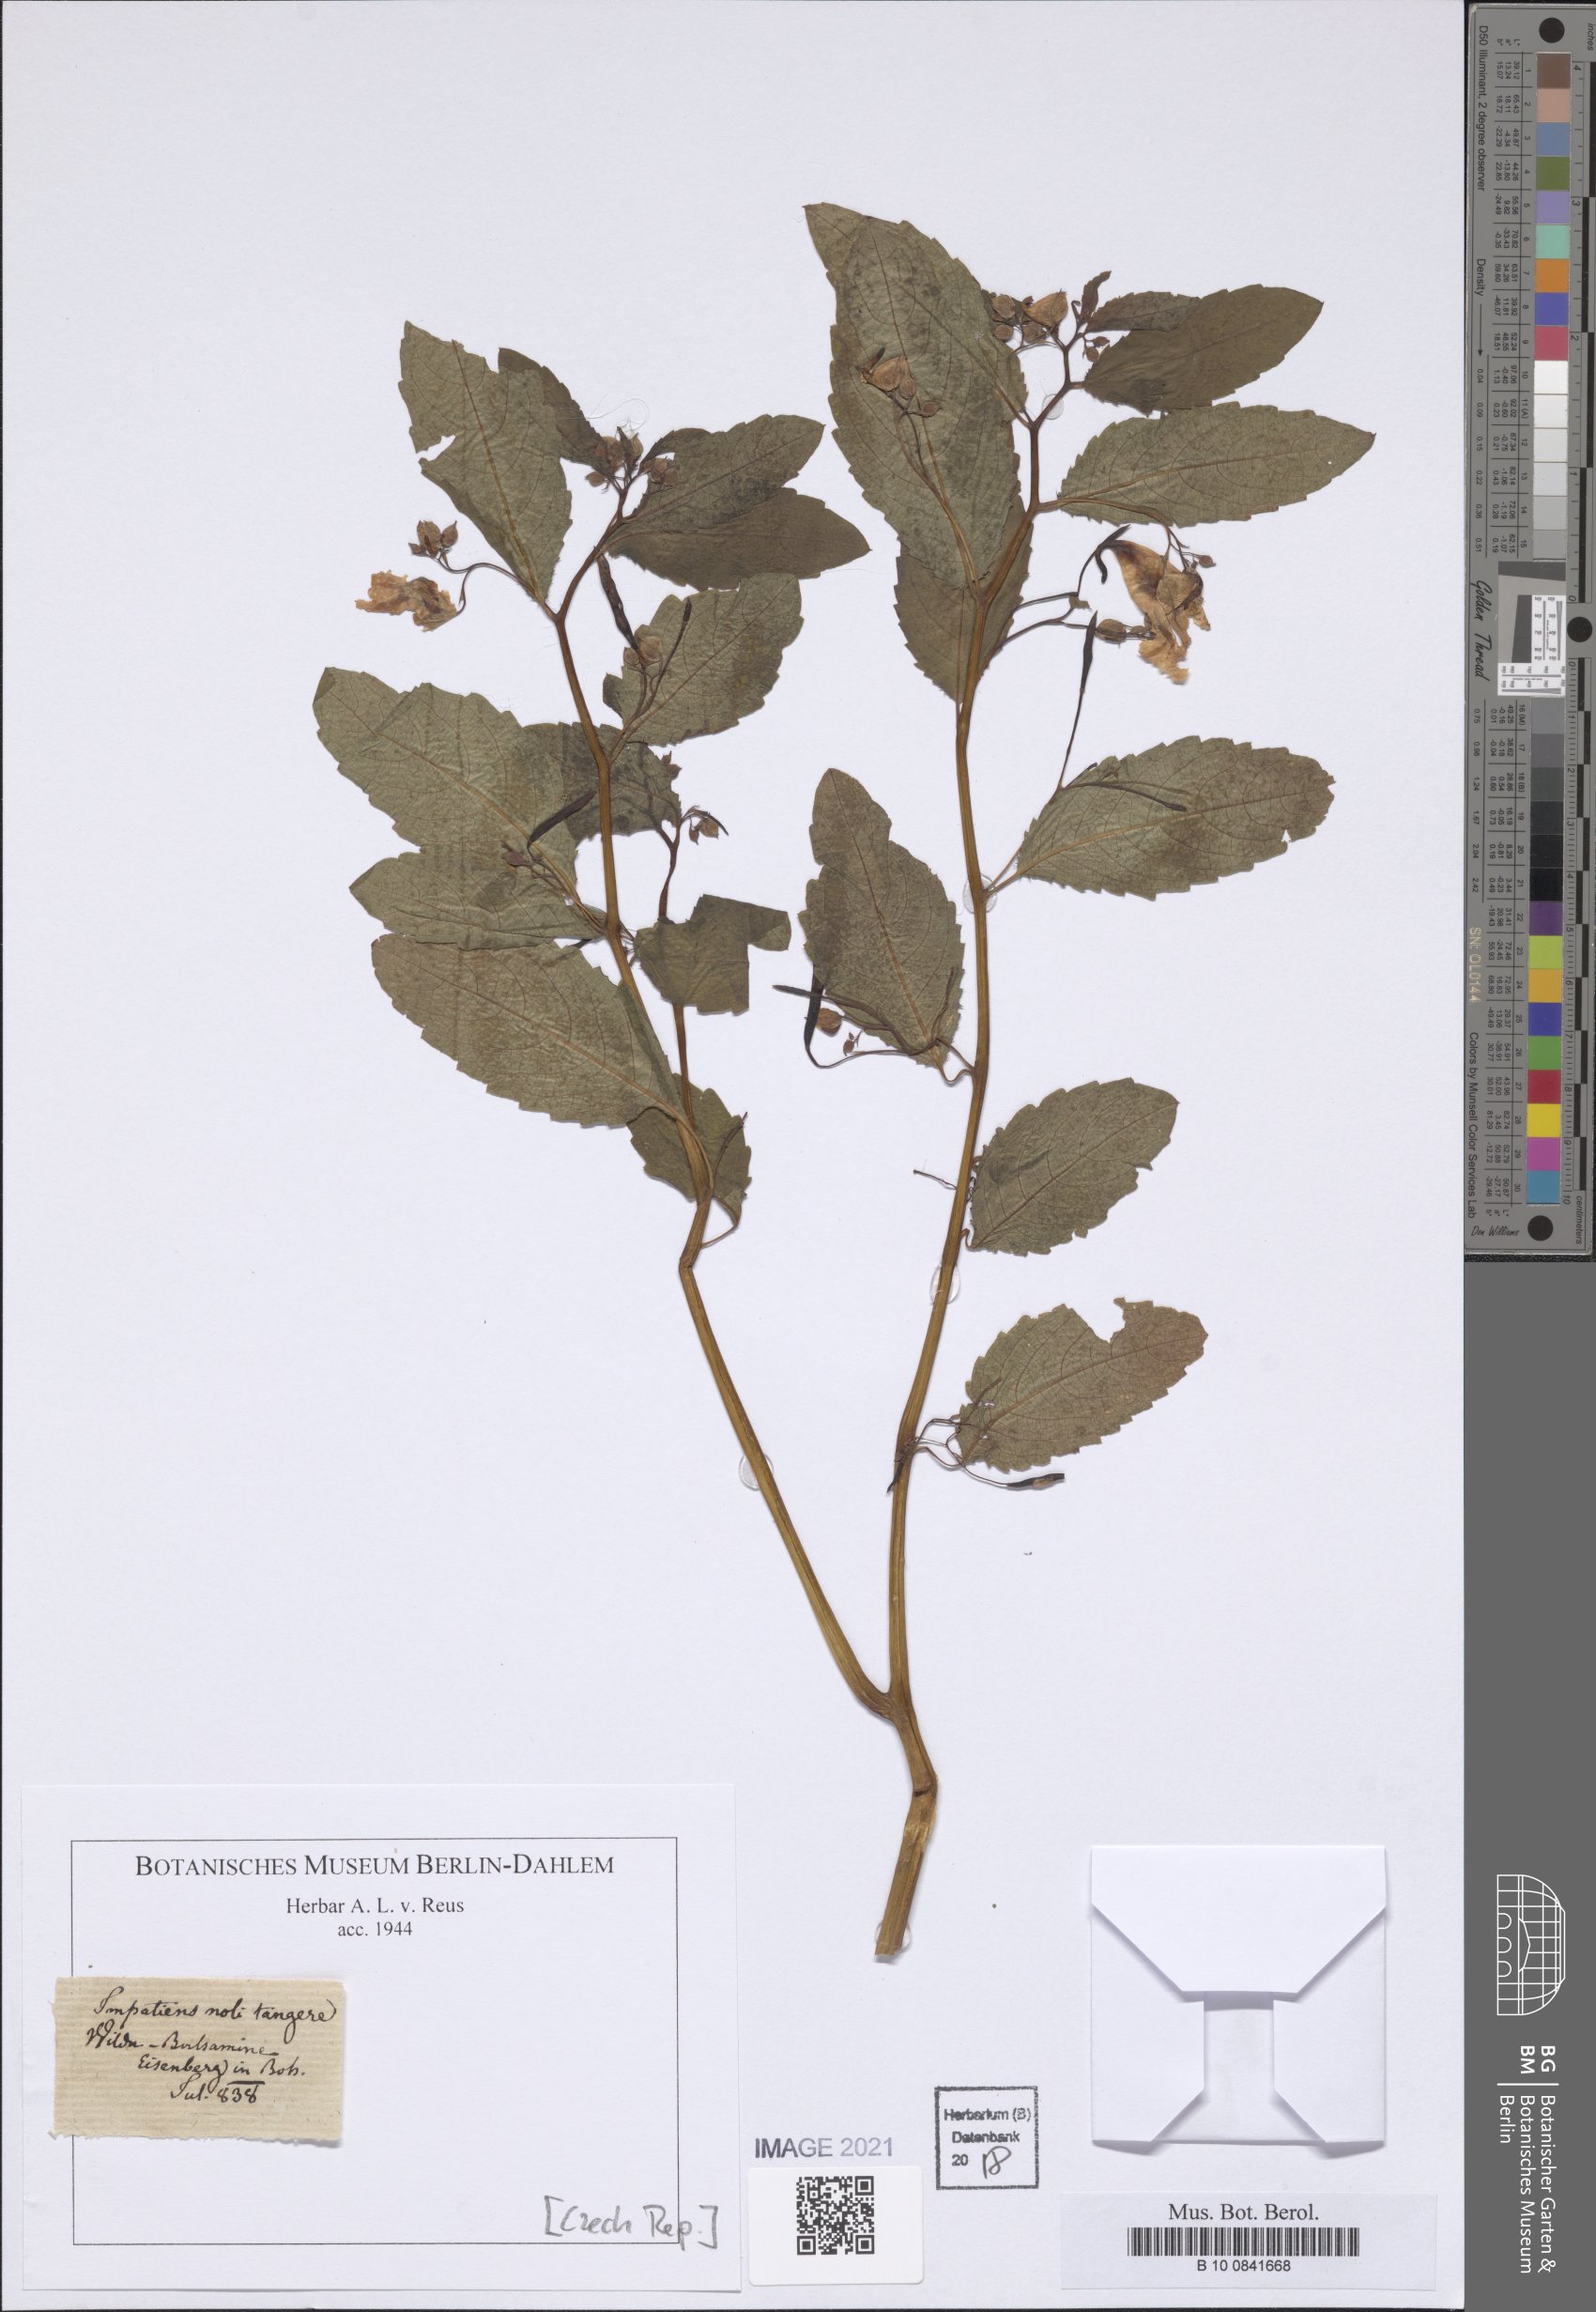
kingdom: Plantae
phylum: Tracheophyta
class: Magnoliopsida
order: Ericales
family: Balsaminaceae
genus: Impatiens
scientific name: Impatiens noli-tangere
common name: Touch-me-not balsam
